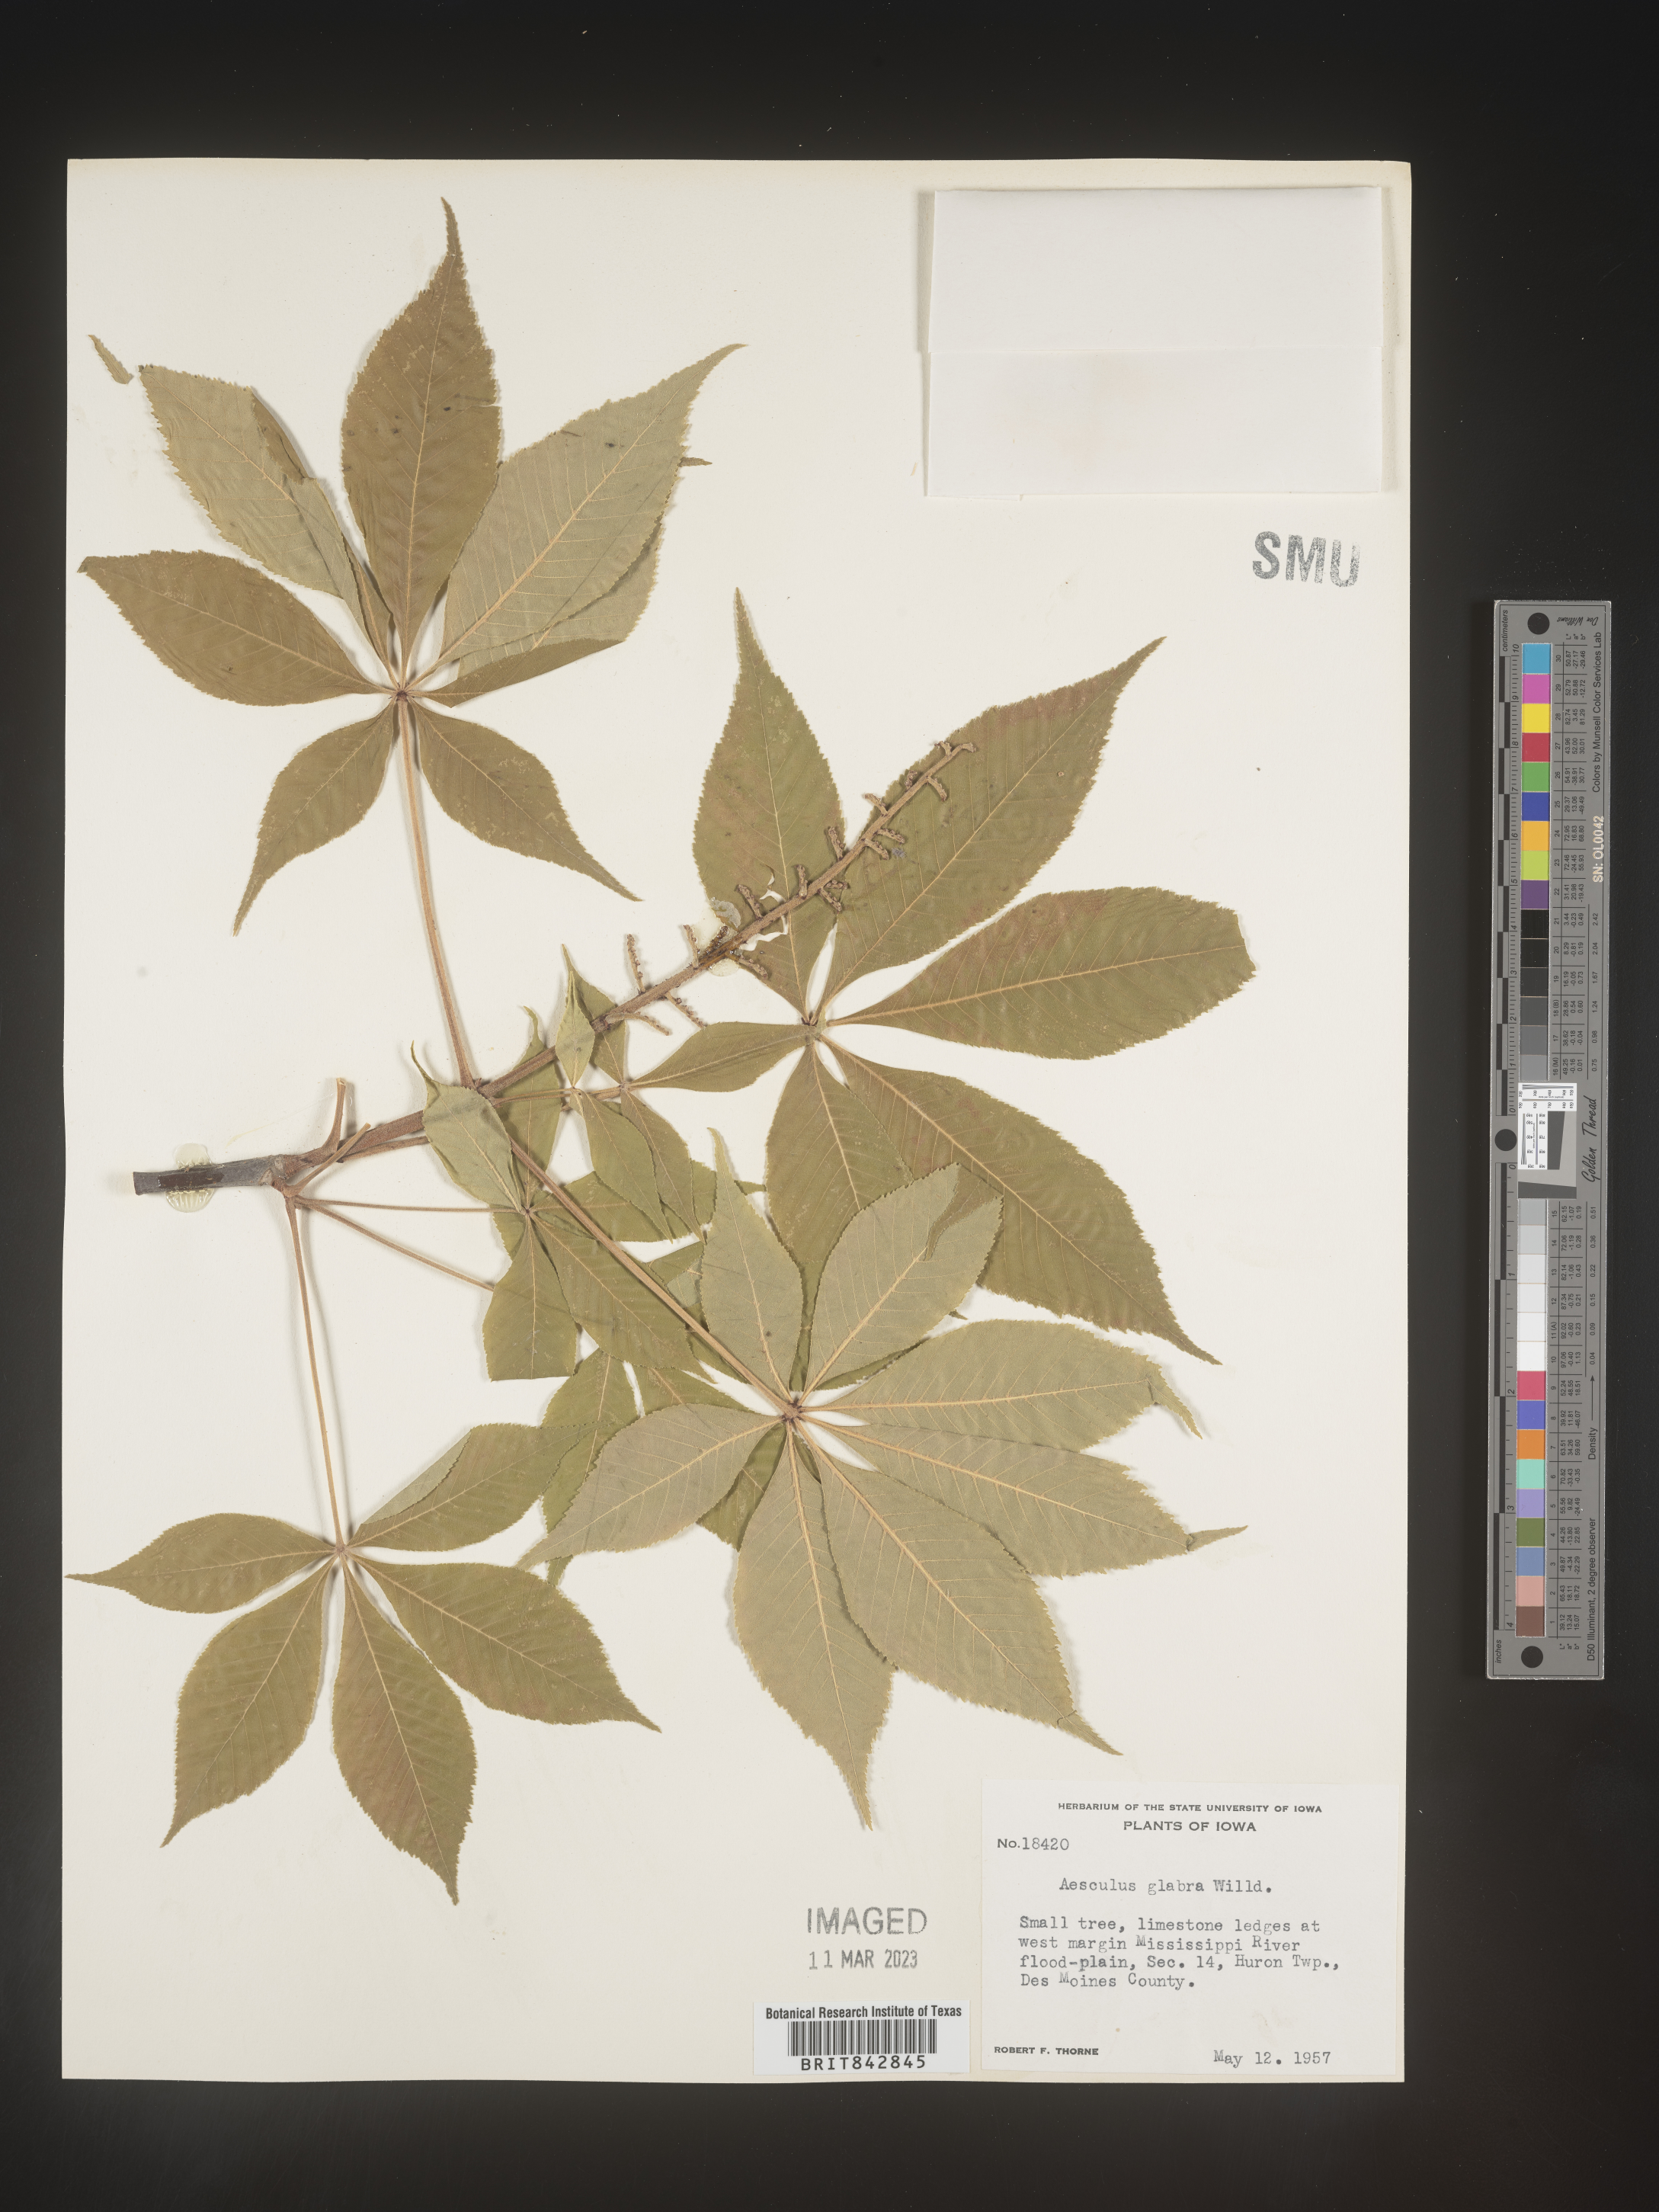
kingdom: Plantae
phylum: Tracheophyta
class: Magnoliopsida
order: Sapindales
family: Sapindaceae
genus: Aesculus
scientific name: Aesculus glabra
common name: Ohio buckeye
